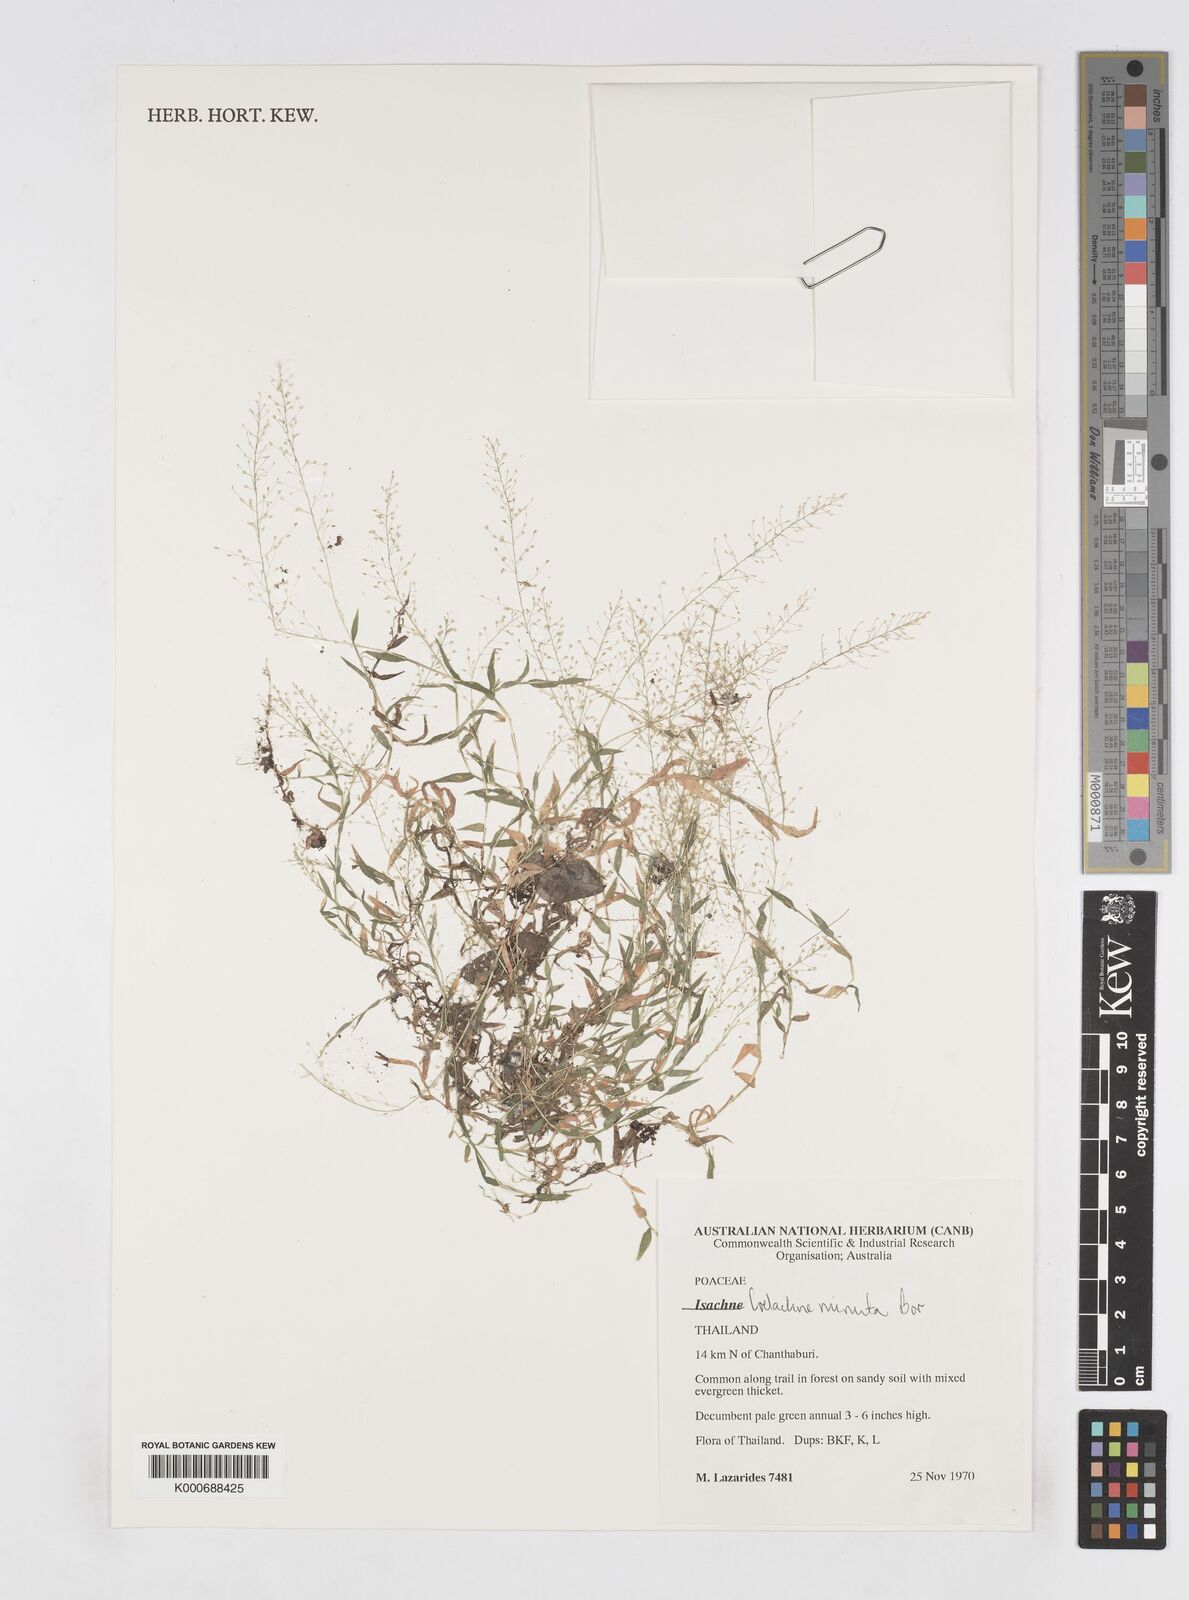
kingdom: Plantae
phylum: Tracheophyta
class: Liliopsida
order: Poales
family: Poaceae
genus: Coelachne
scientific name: Coelachne minuta
